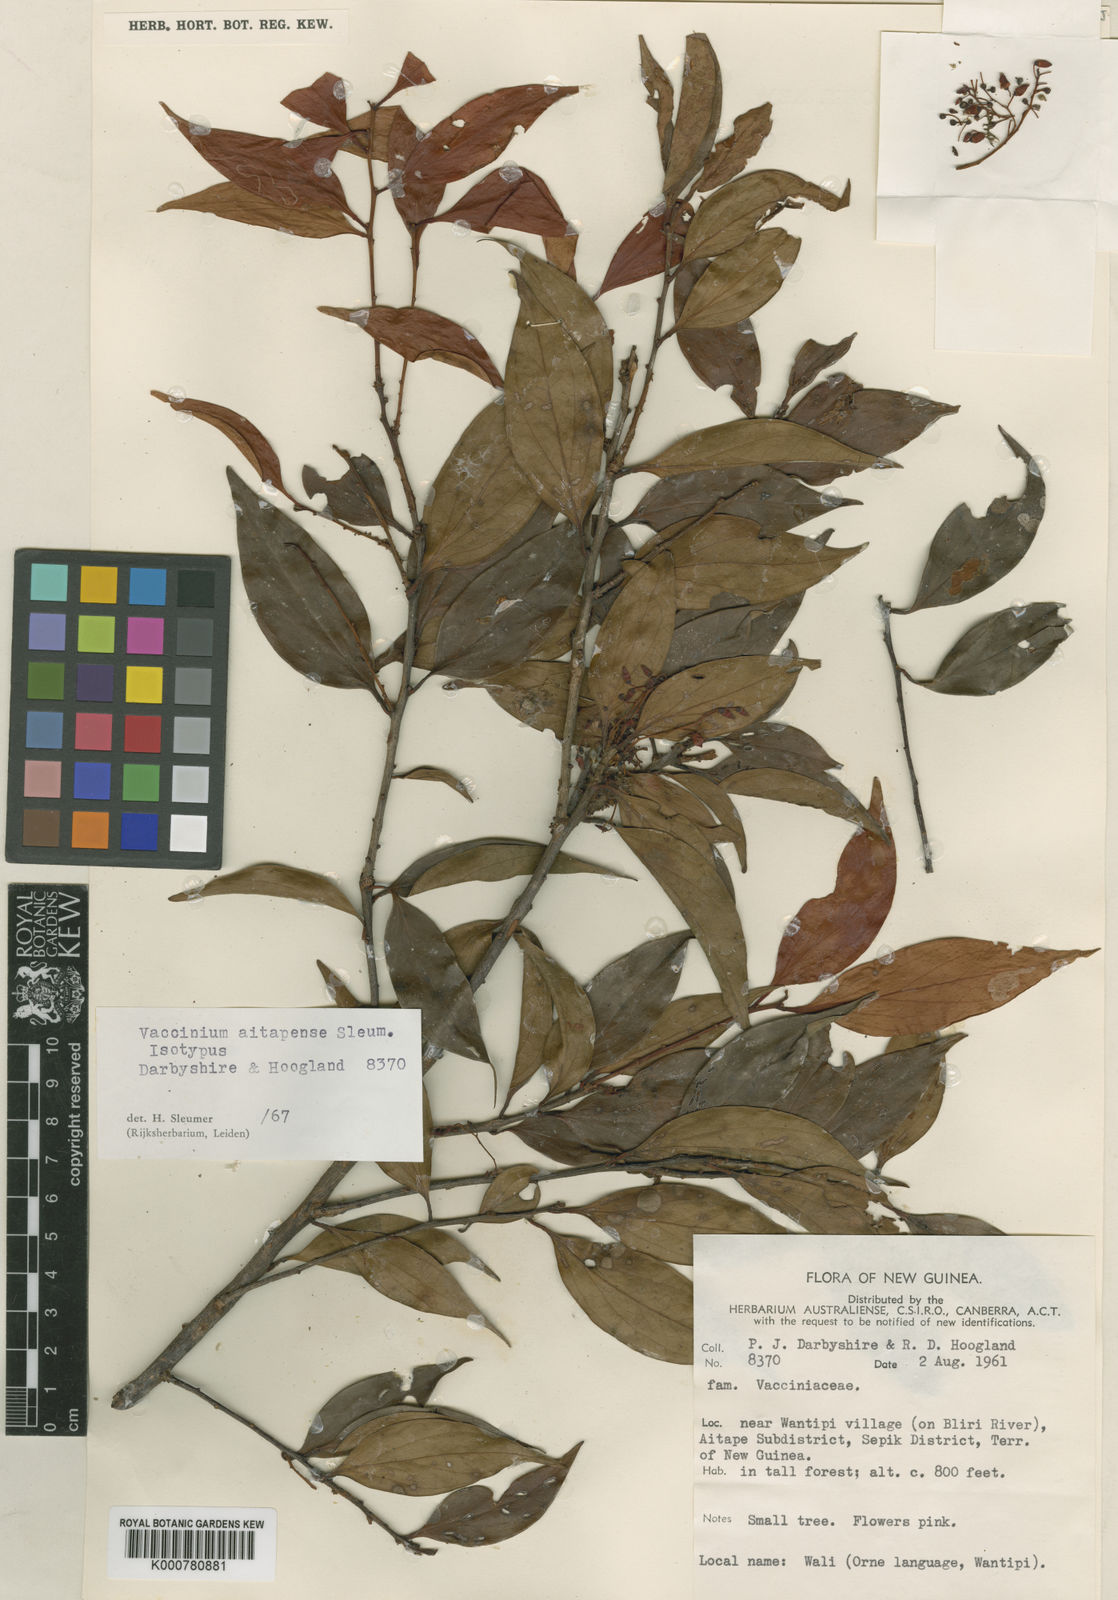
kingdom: Plantae
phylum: Tracheophyta
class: Magnoliopsida
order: Ericales
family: Ericaceae
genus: Vaccinium
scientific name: Vaccinium aitapense
